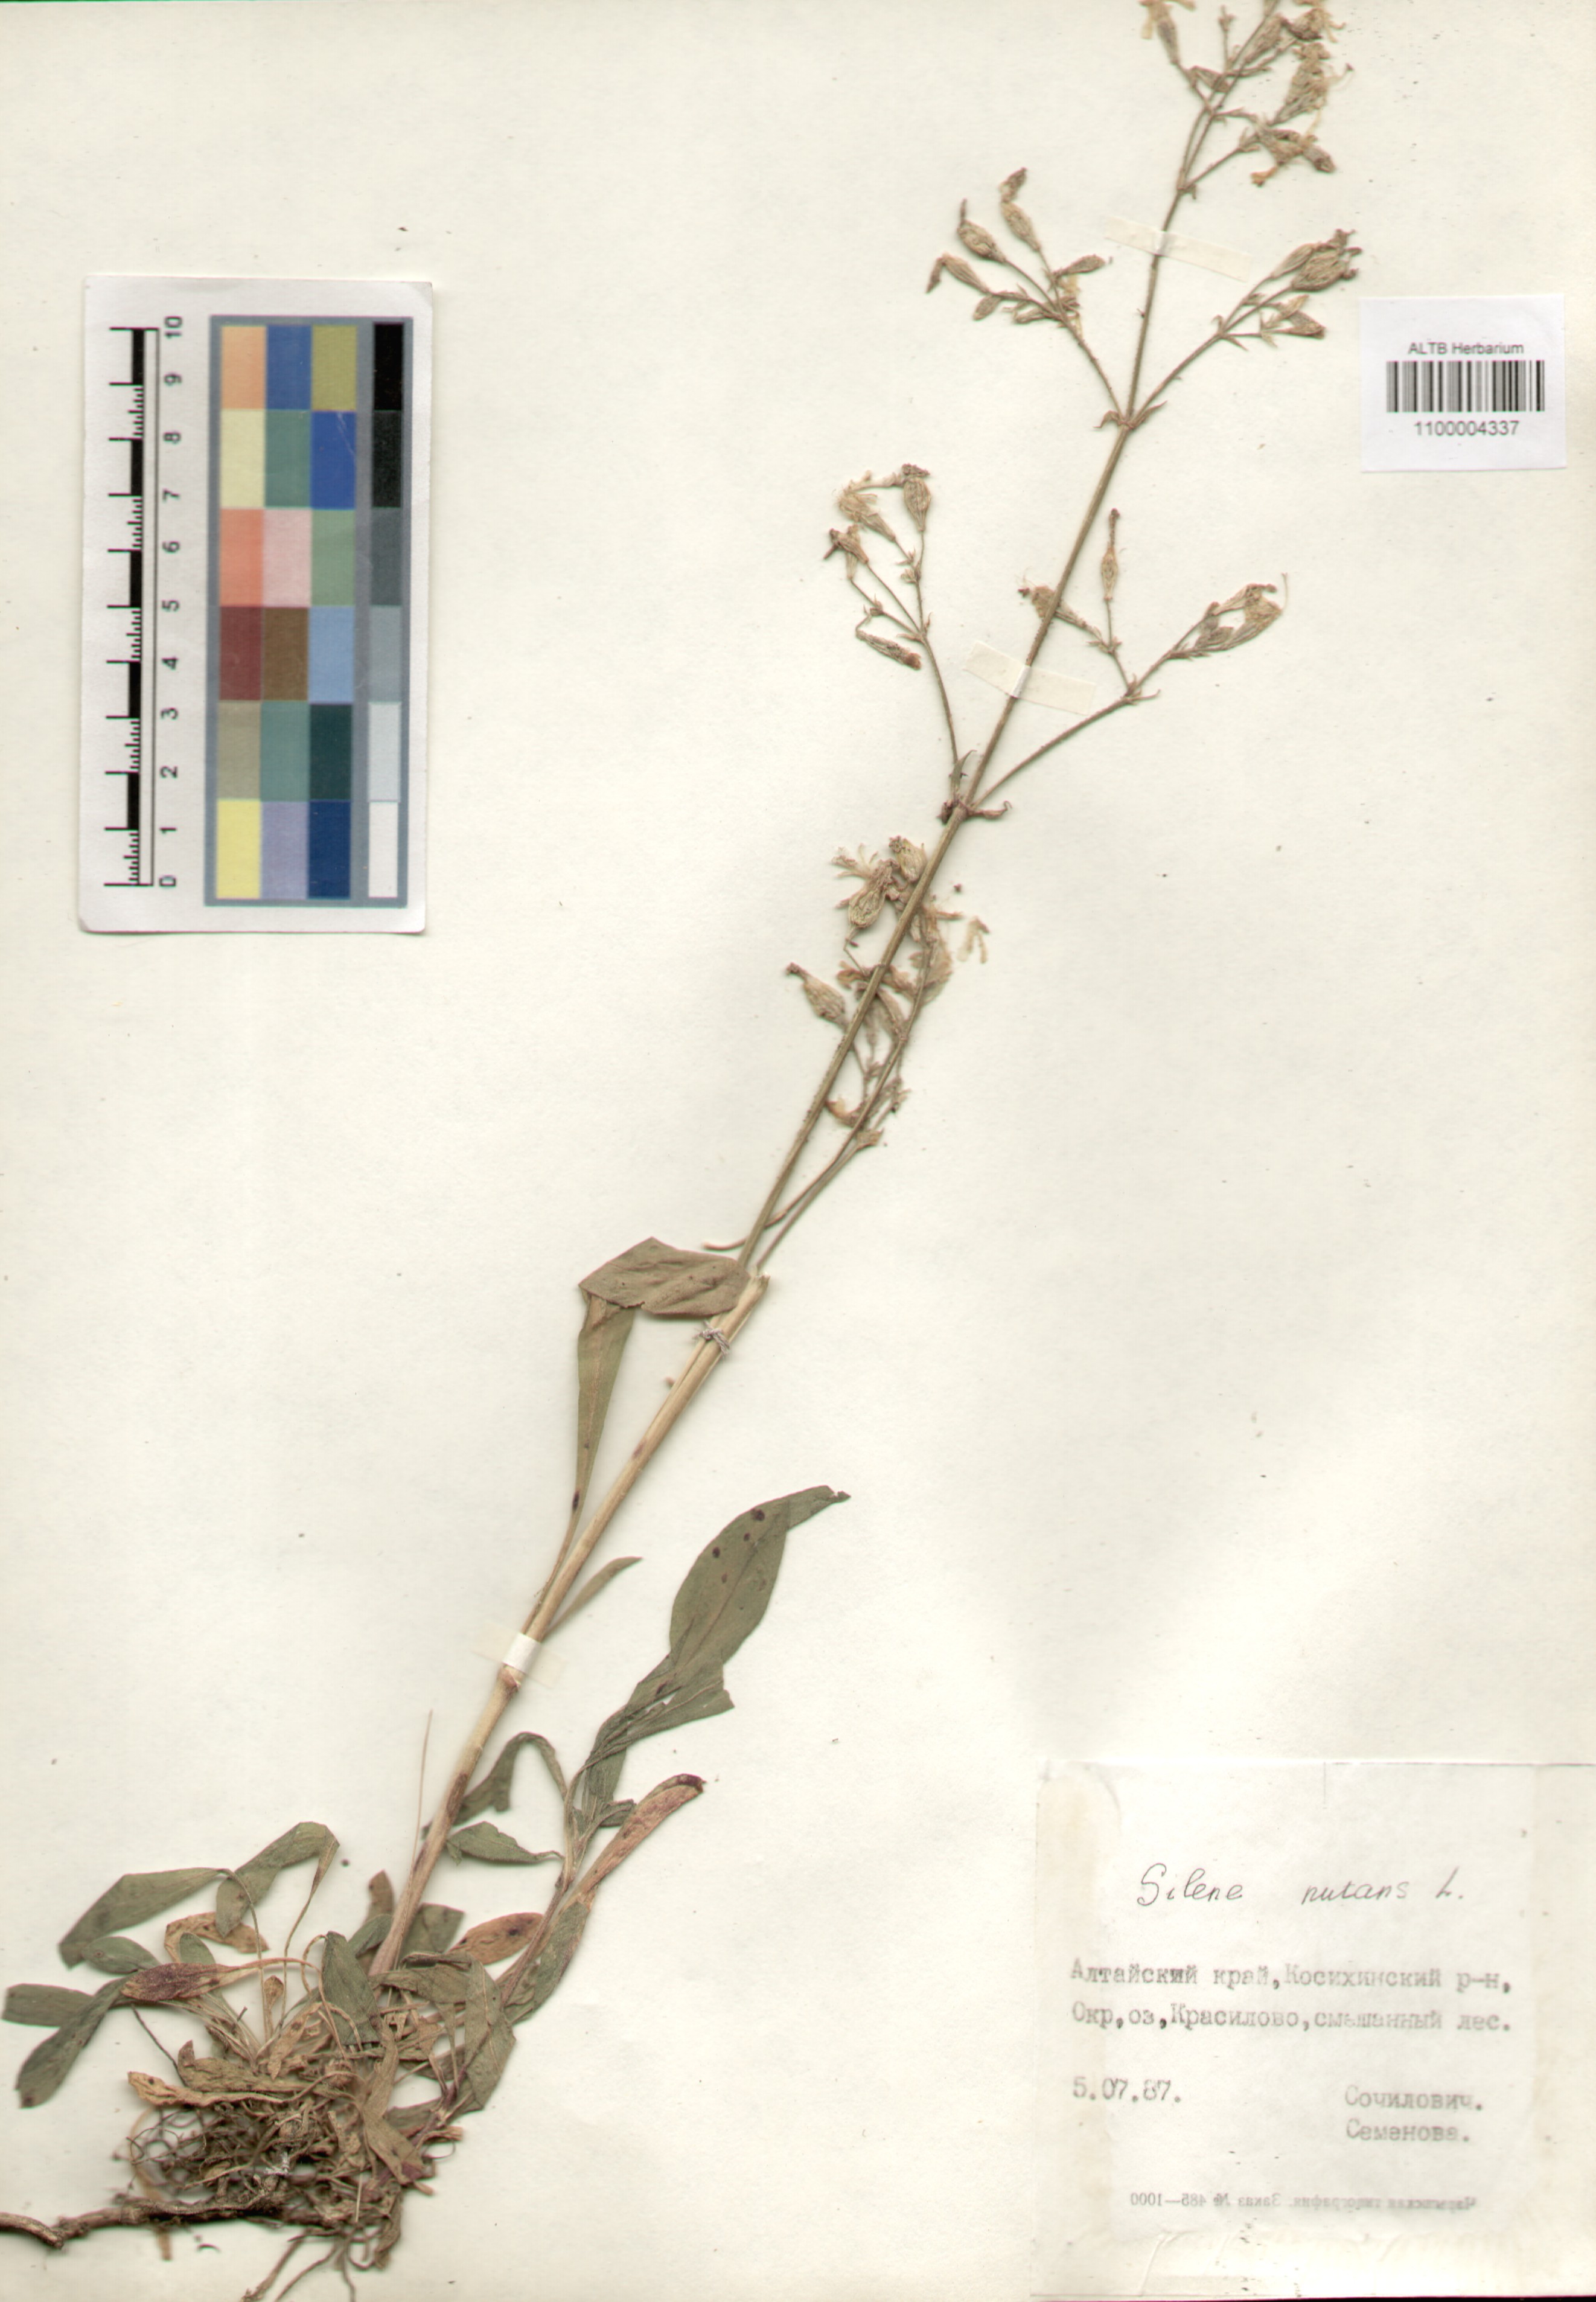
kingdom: Plantae
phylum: Tracheophyta
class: Magnoliopsida
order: Caryophyllales
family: Caryophyllaceae
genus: Silene
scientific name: Silene nutans
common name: Nottingham catchfly
